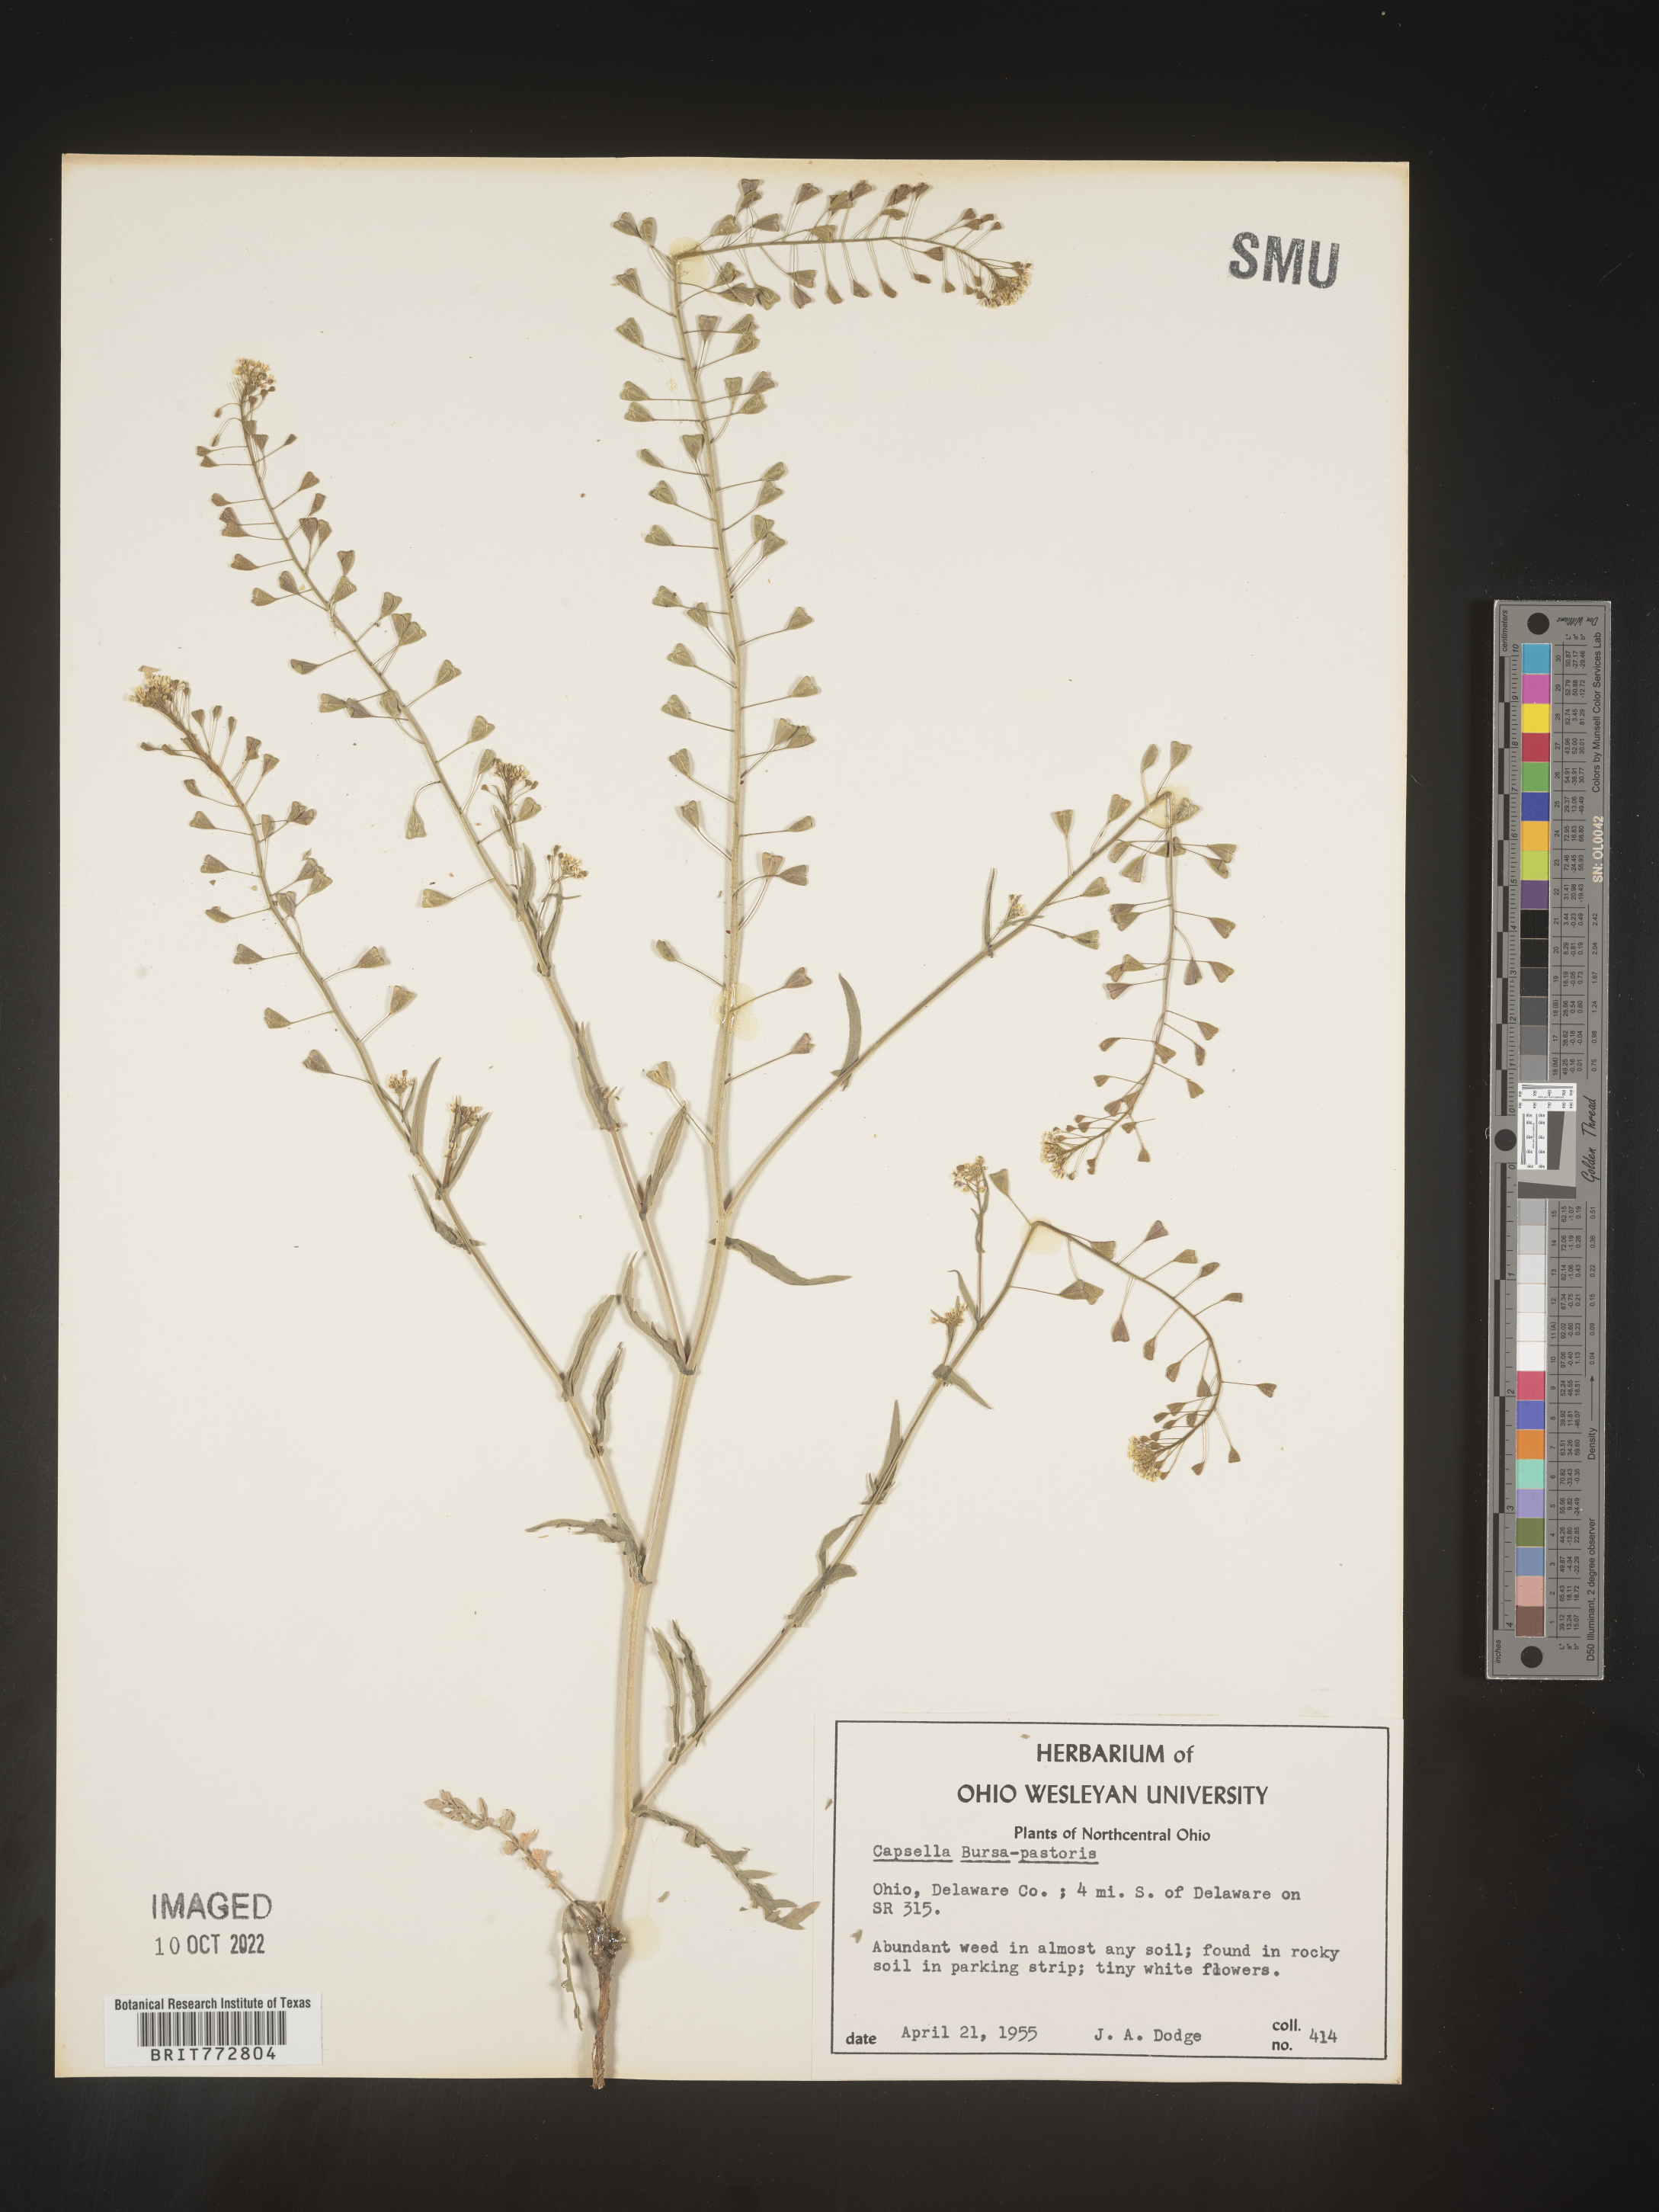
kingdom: Plantae
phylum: Tracheophyta
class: Magnoliopsida
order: Brassicales
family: Brassicaceae
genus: Capsella
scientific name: Capsella bursa-pastoris
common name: Shepherd's purse
